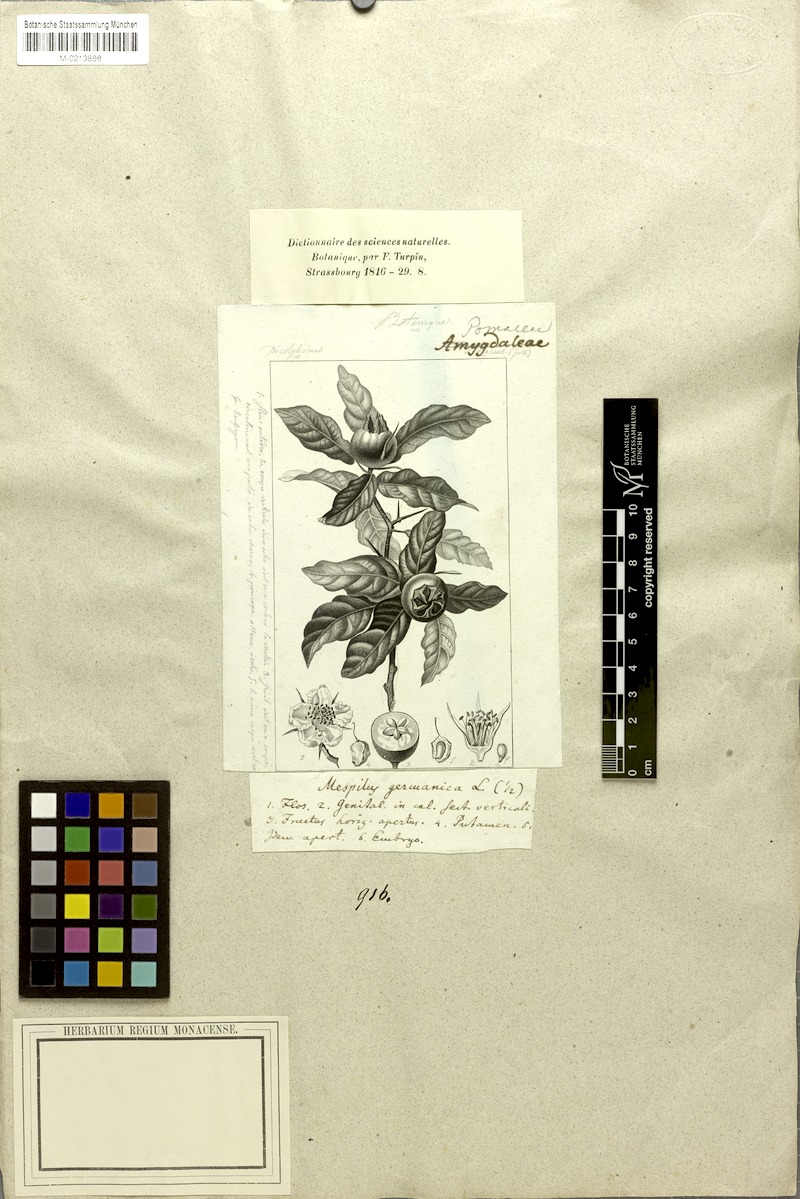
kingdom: Plantae
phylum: Tracheophyta
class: Magnoliopsida
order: Rosales
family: Rosaceae
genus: Mespilus
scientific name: Mespilus germanica
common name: Medlar
